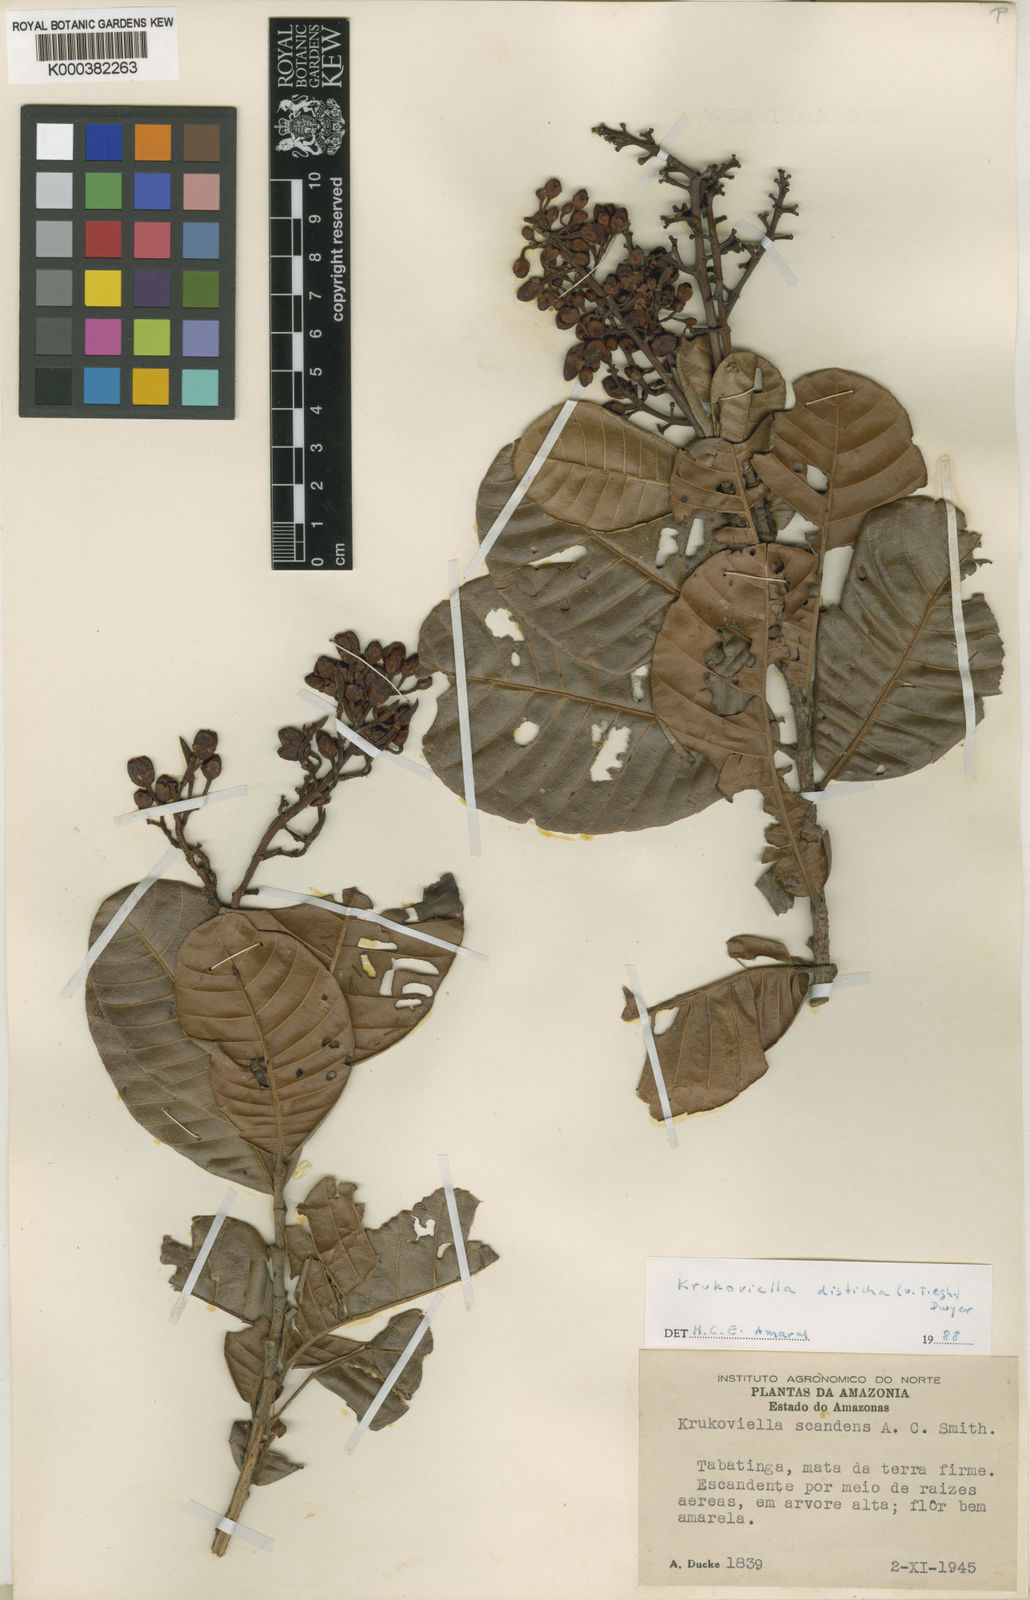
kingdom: Plantae
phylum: Tracheophyta
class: Magnoliopsida
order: Malpighiales
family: Ochnaceae
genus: Krukoviella
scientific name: Krukoviella disticha
